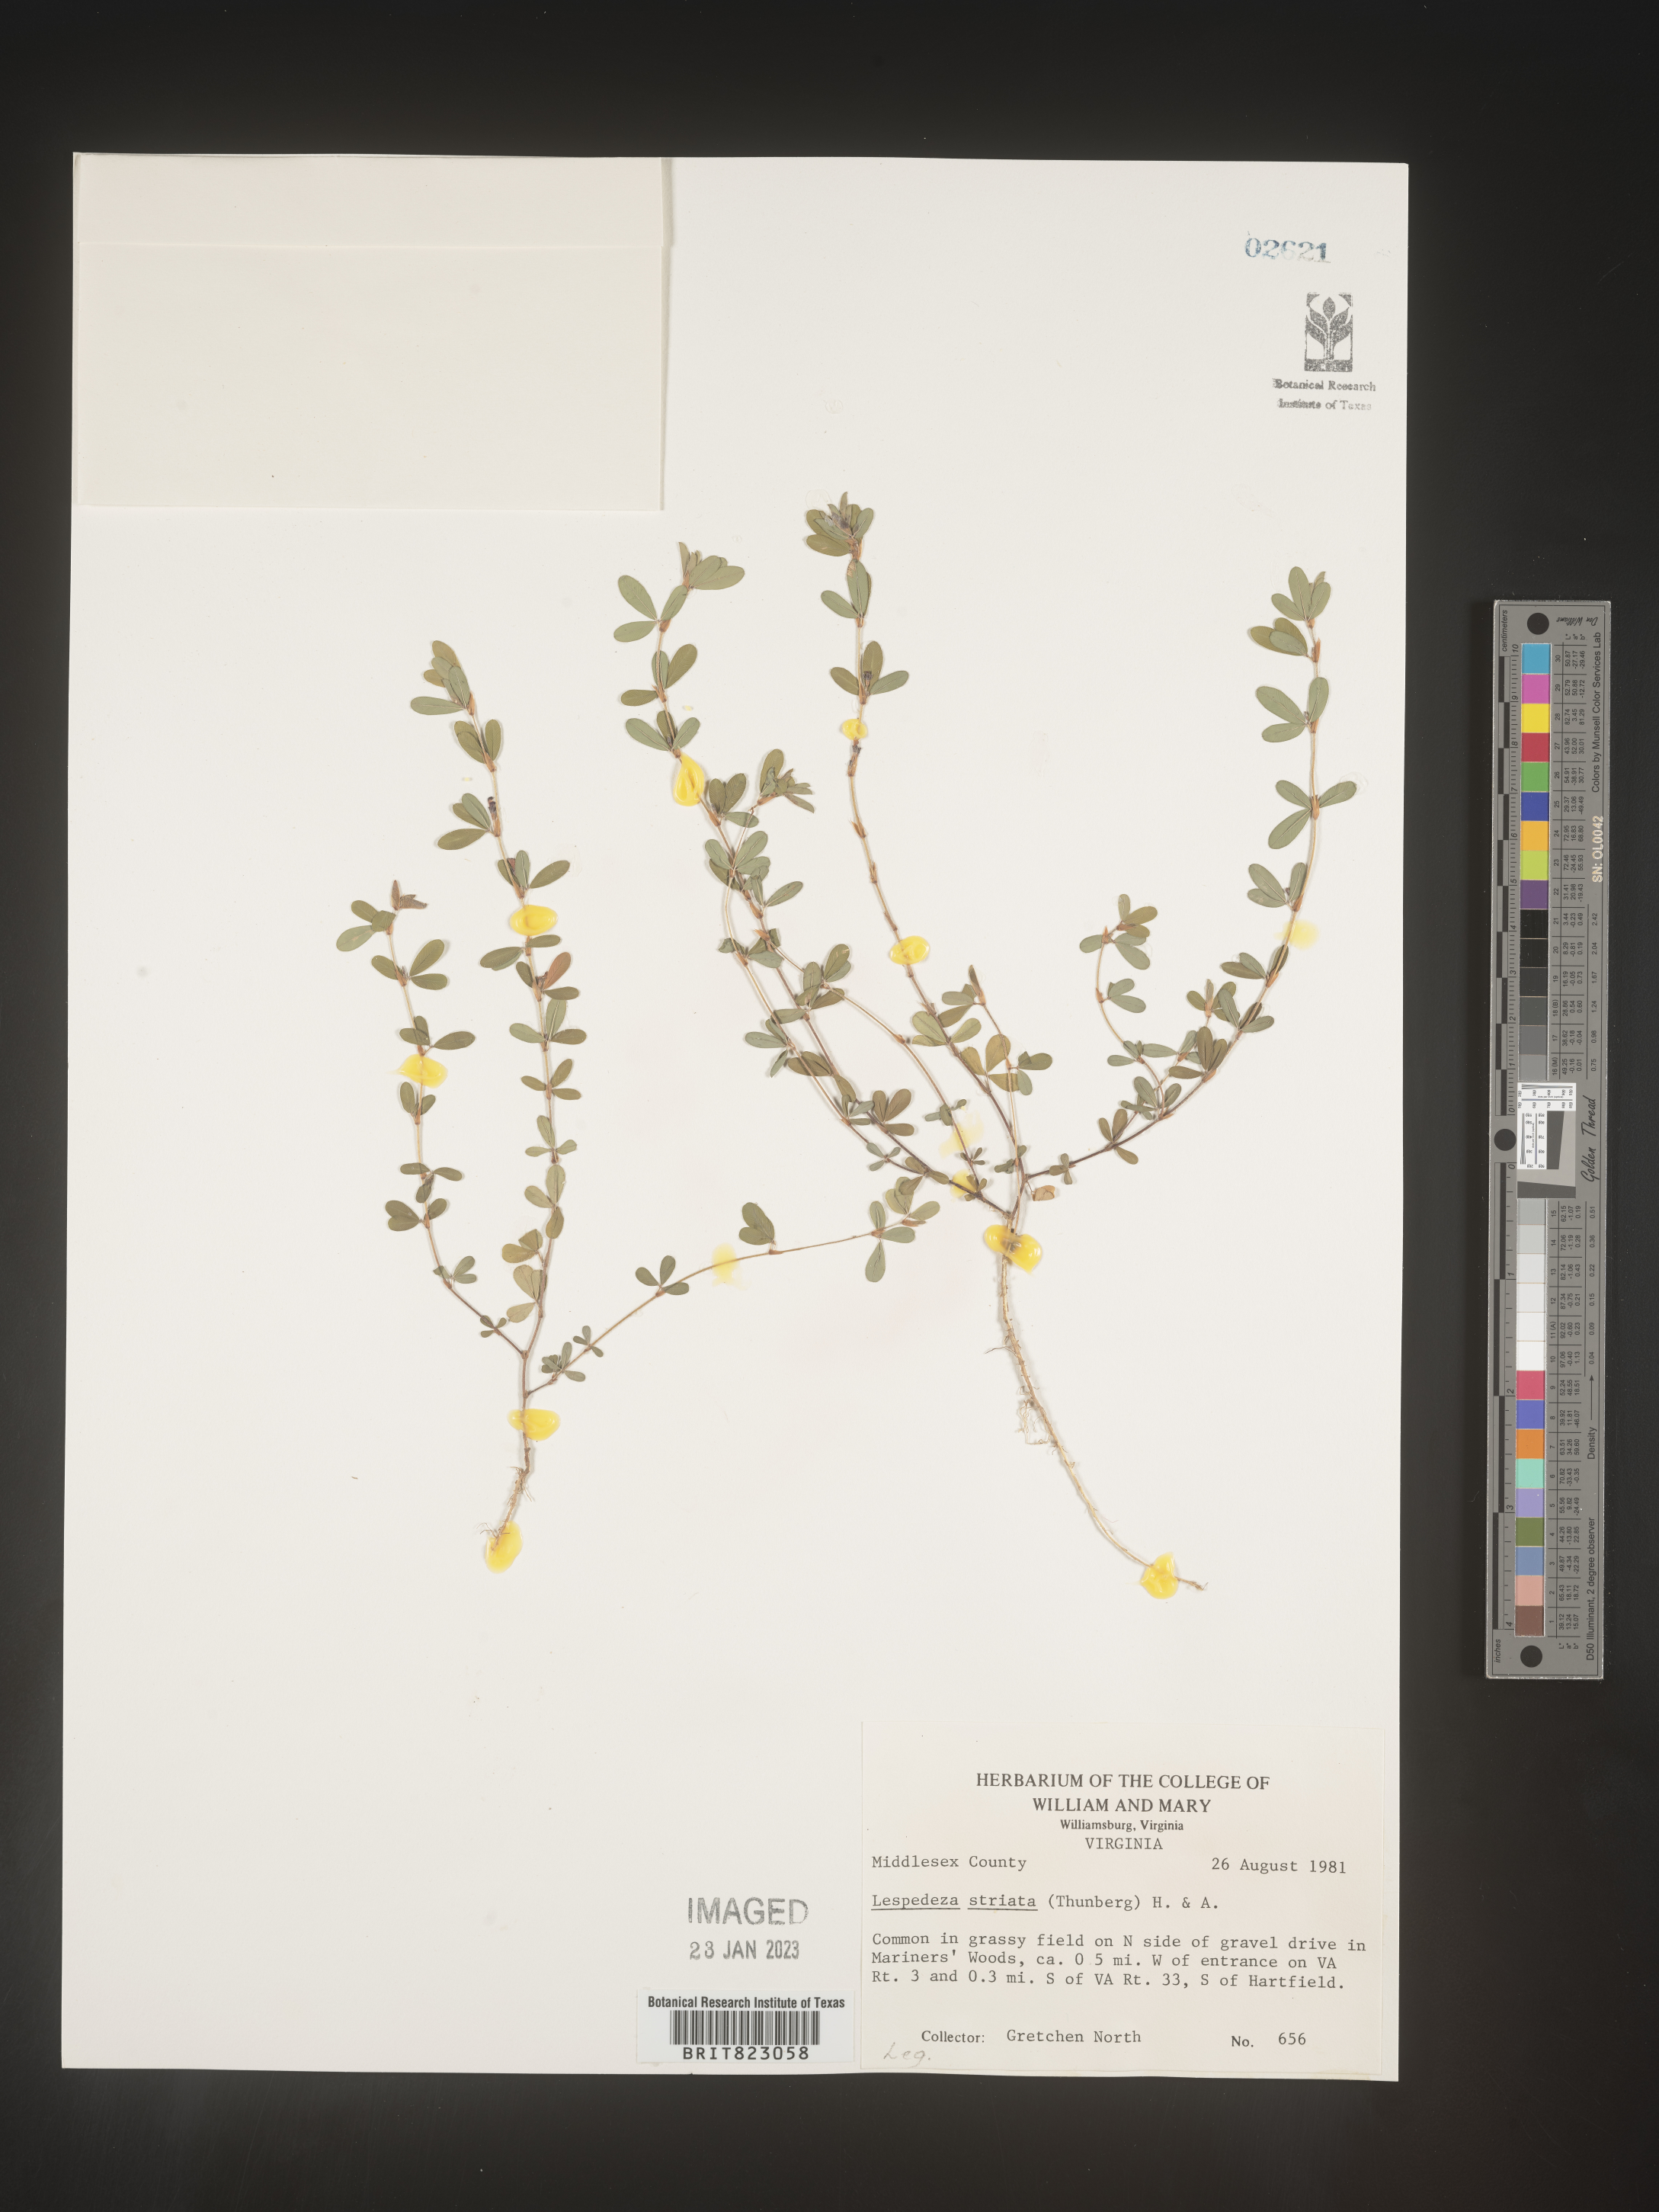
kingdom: Plantae
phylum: Tracheophyta
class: Magnoliopsida
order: Fabales
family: Fabaceae
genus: Kummerowia
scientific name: Kummerowia striata
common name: Japanese clover
